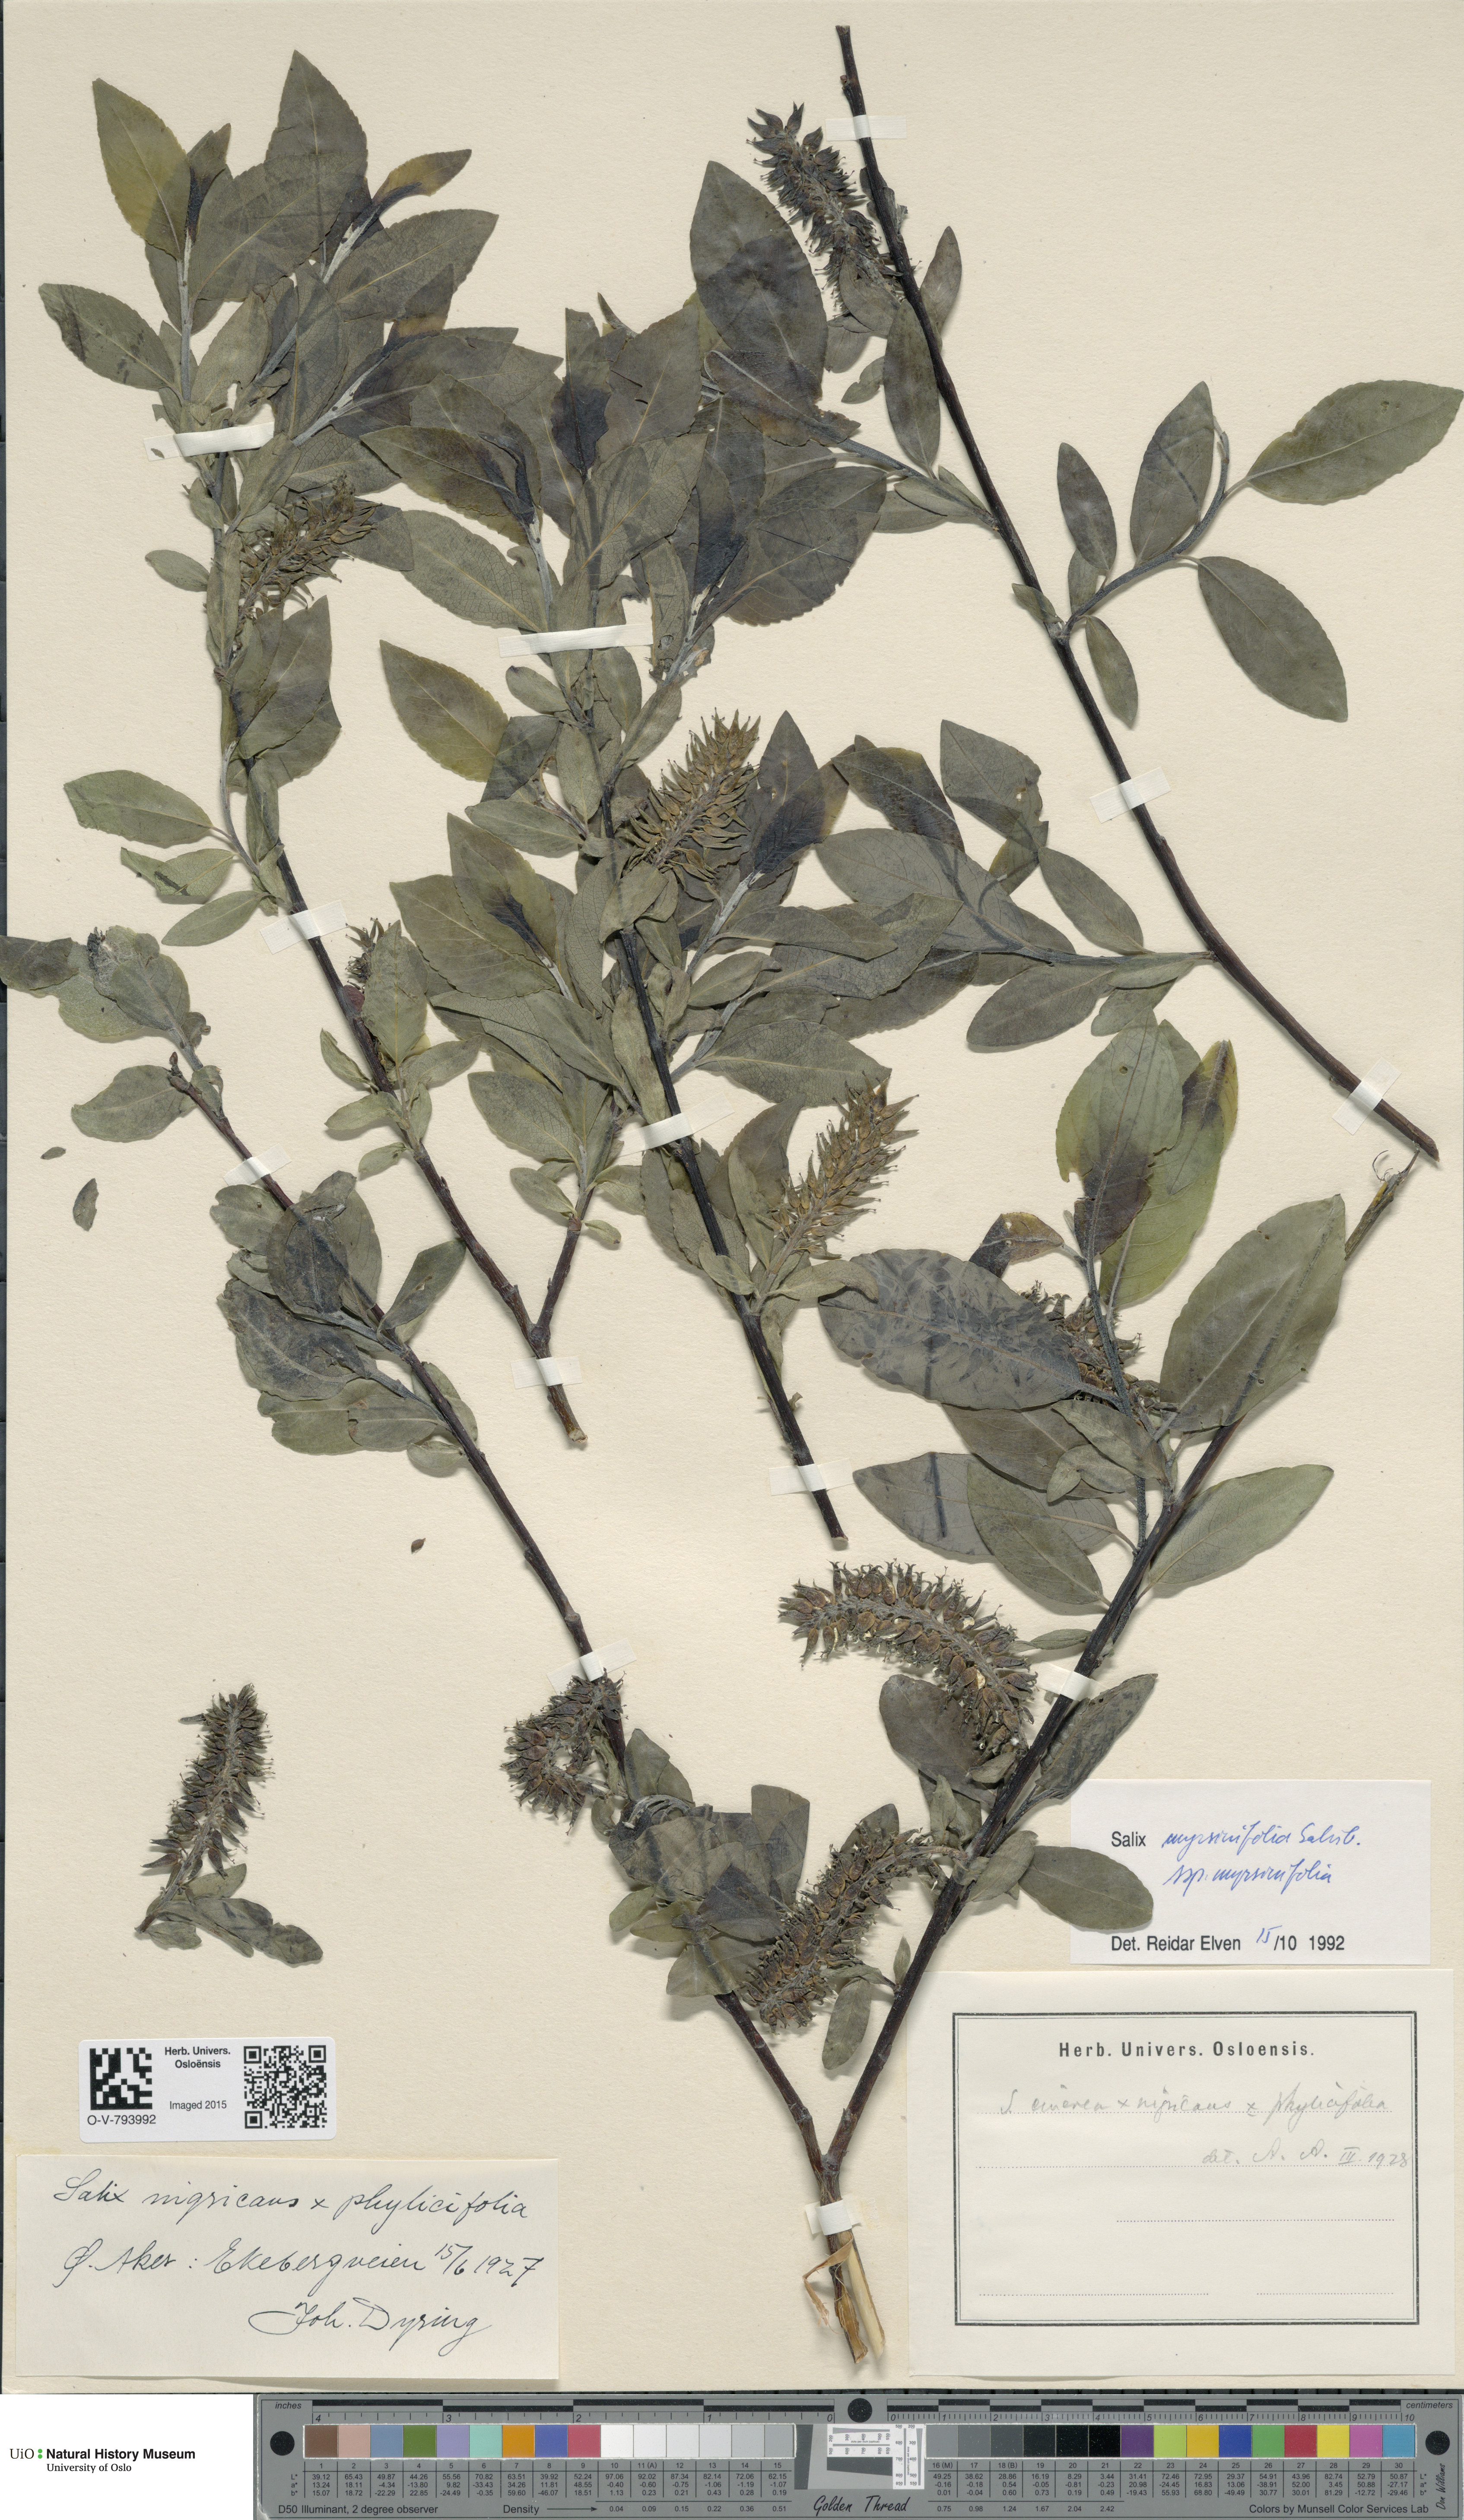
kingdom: Plantae
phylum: Tracheophyta
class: Magnoliopsida
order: Malpighiales
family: Salicaceae
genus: Salix
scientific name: Salix myrsinifolia
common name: Dark-leaved willow
